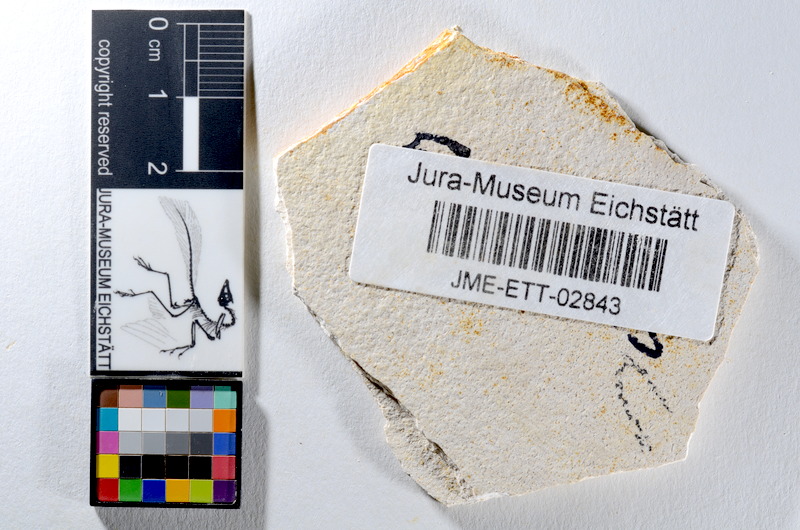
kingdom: Animalia
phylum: Chordata
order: Salmoniformes
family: Orthogonikleithridae
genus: Orthogonikleithrus
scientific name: Orthogonikleithrus hoelli
